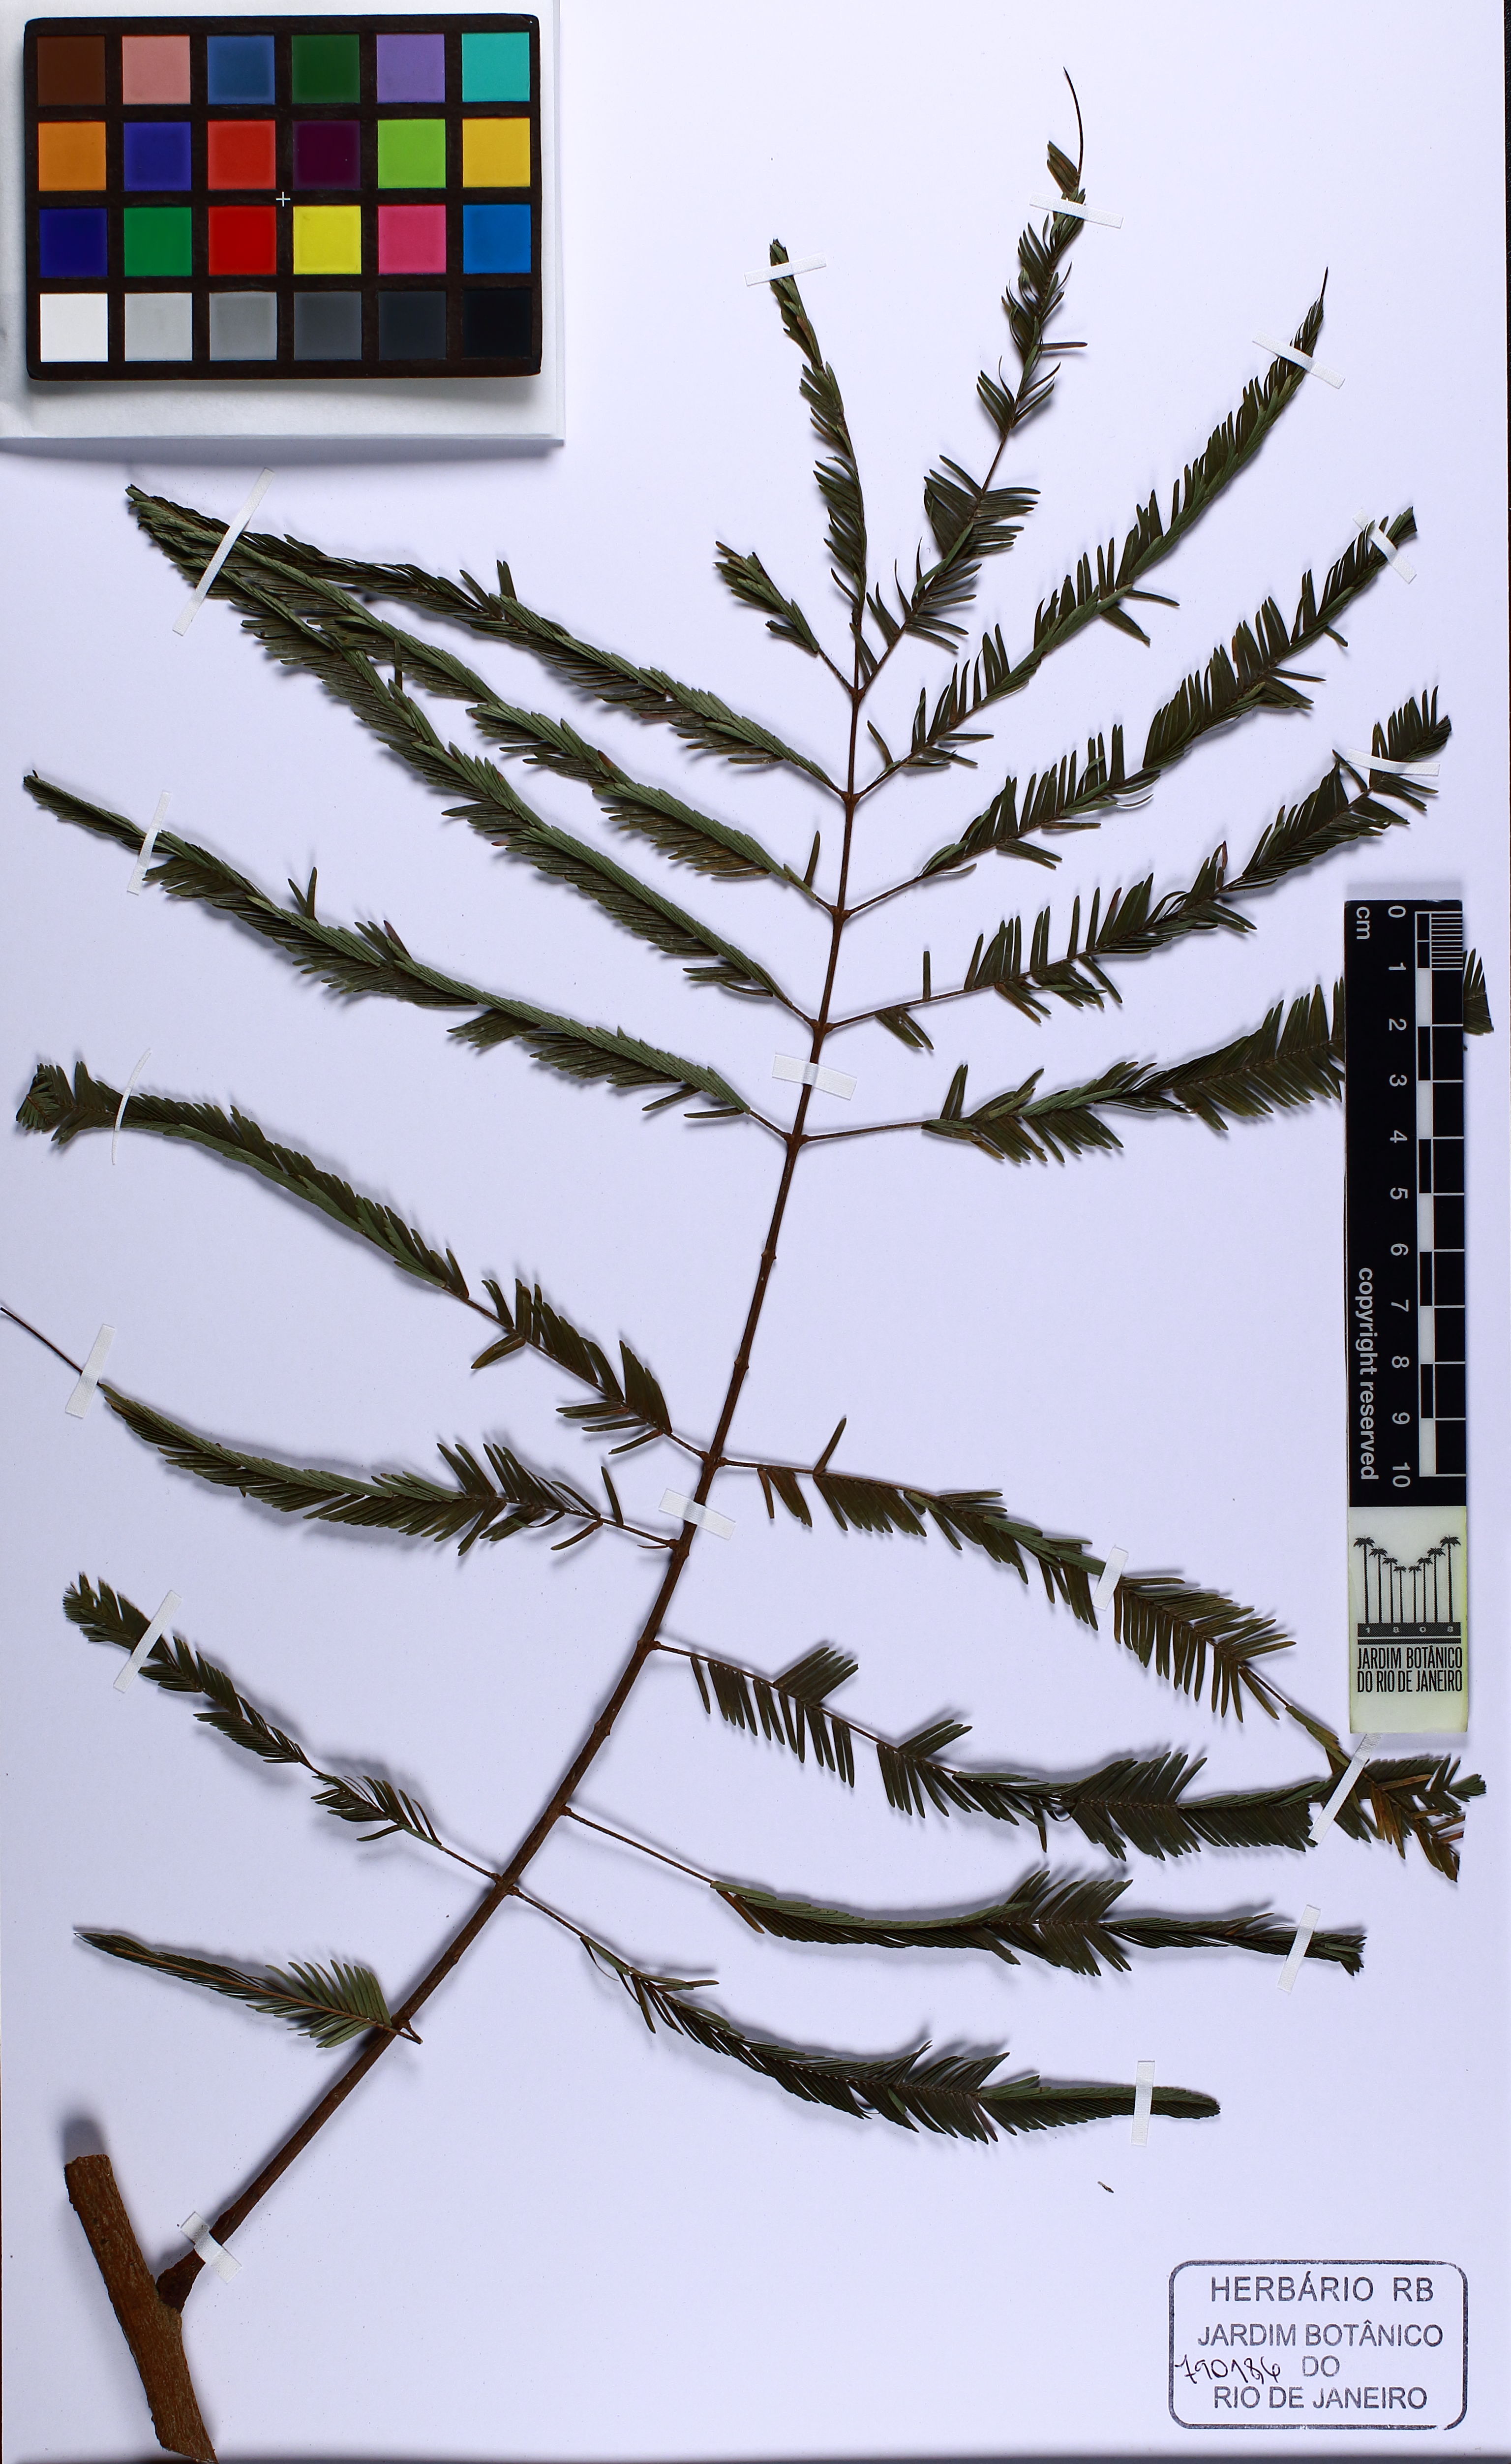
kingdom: Plantae
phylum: Tracheophyta
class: Magnoliopsida
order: Fabales
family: Fabaceae
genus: Parkia
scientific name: Parkia platycephala
